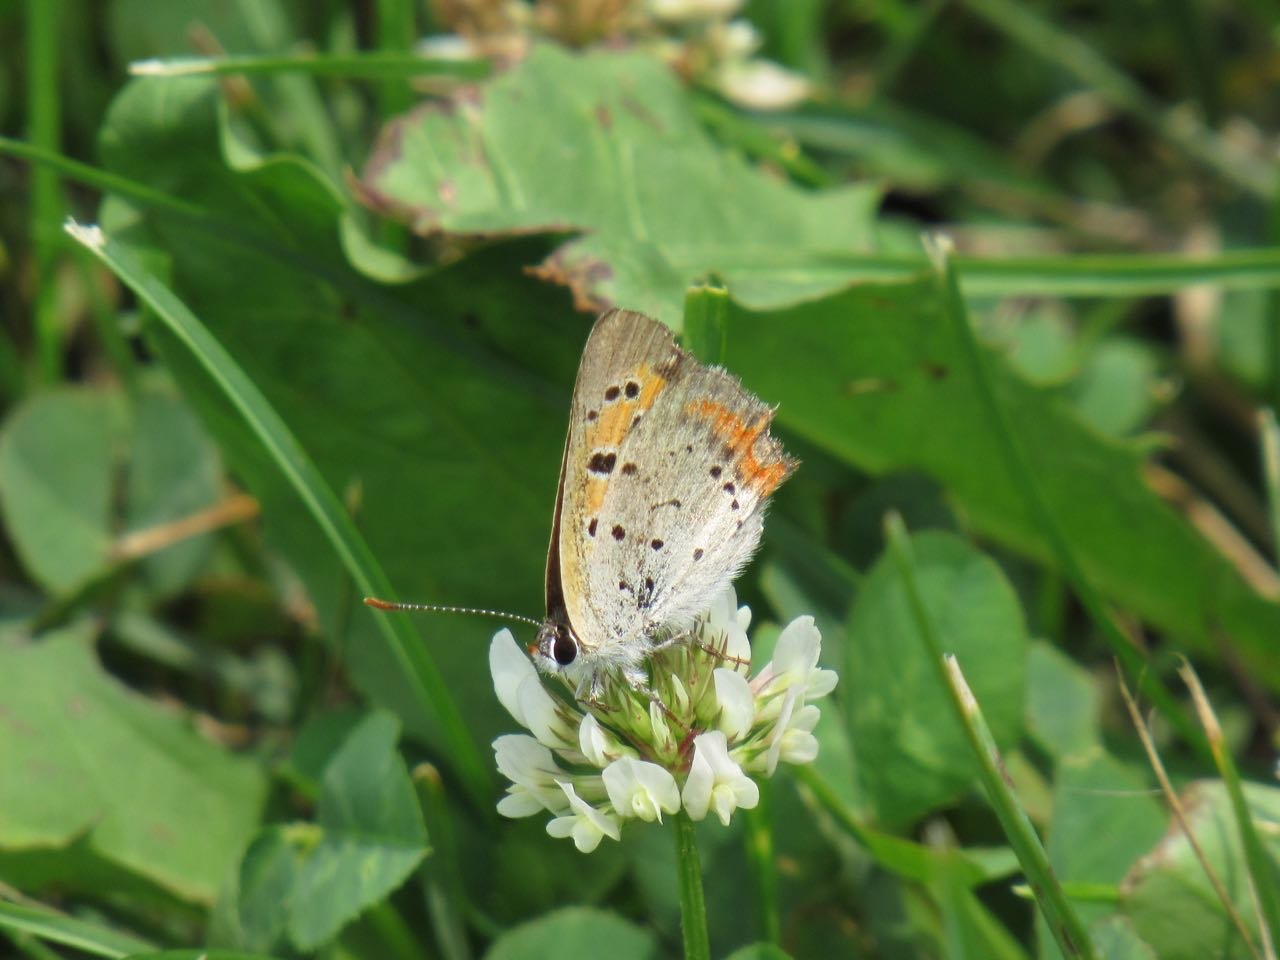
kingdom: Animalia
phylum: Arthropoda
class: Insecta
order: Lepidoptera
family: Lycaenidae
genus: Lycaena
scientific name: Lycaena phlaeas
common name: American Copper
